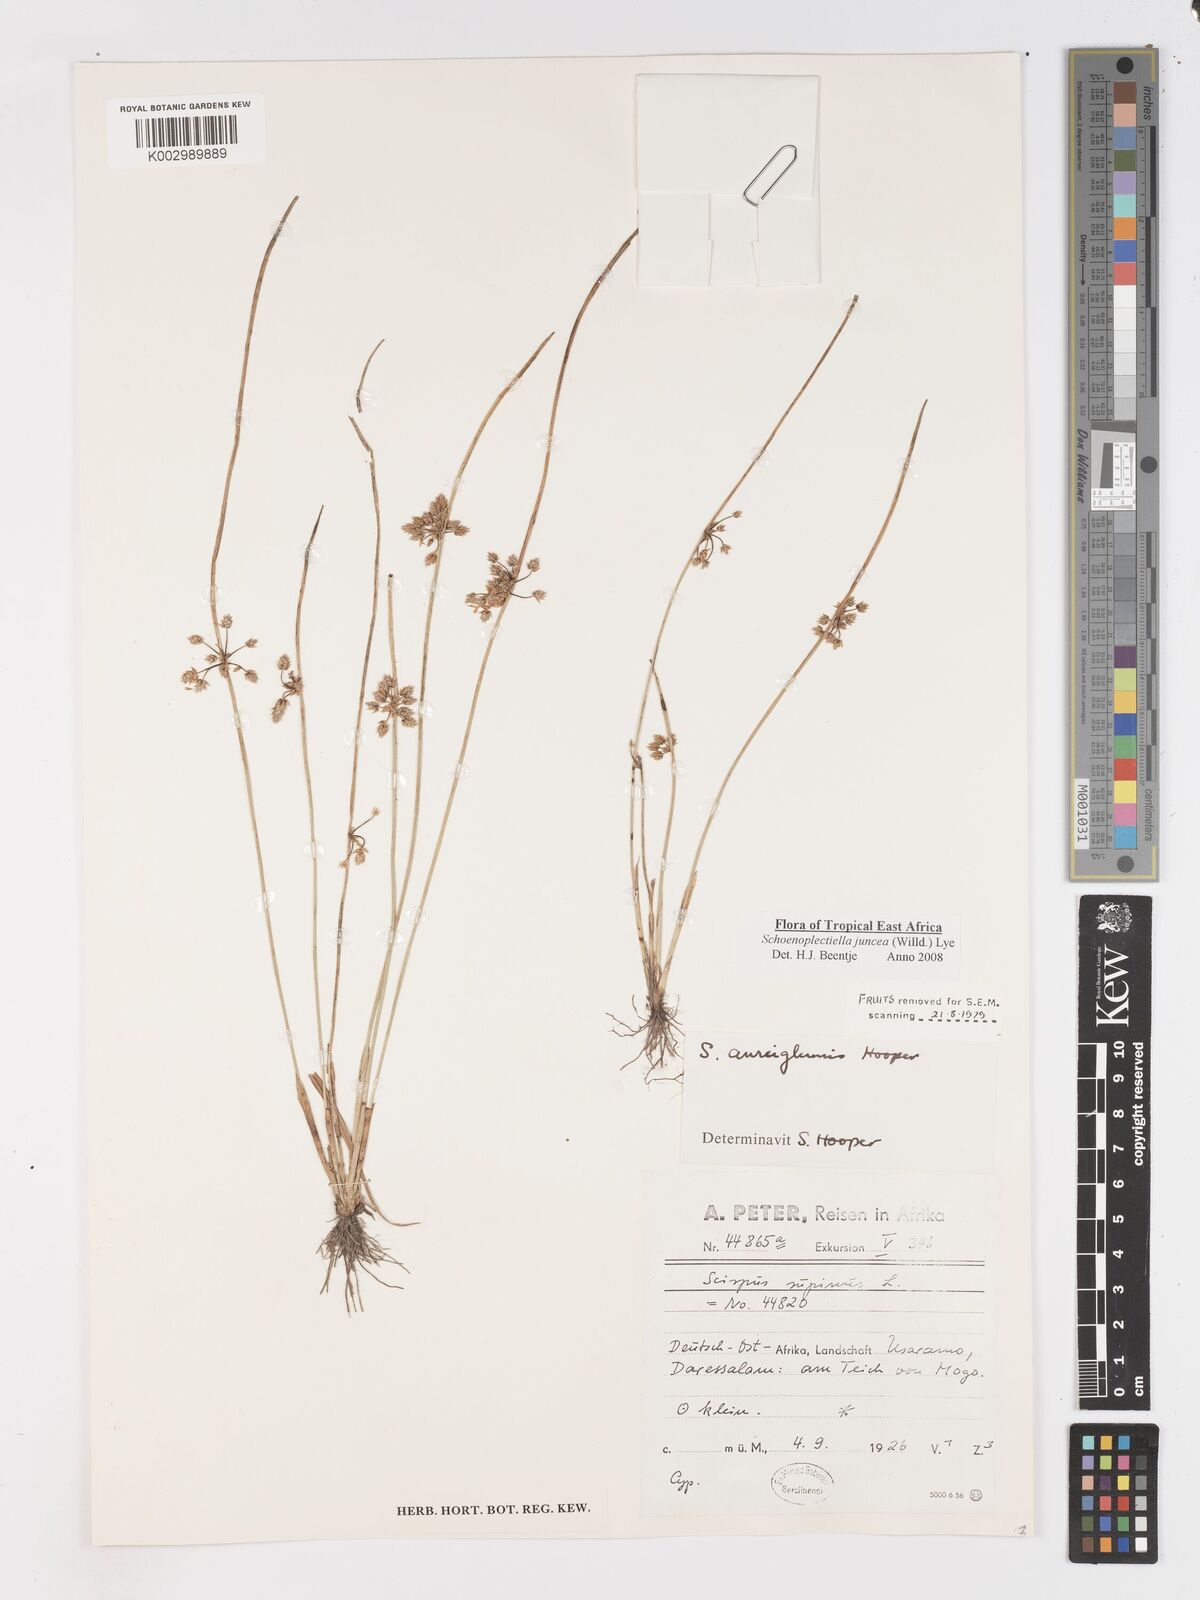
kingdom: Plantae
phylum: Tracheophyta
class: Liliopsida
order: Poales
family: Cyperaceae
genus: Schoenoplectiella
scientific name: Schoenoplectiella juncea
